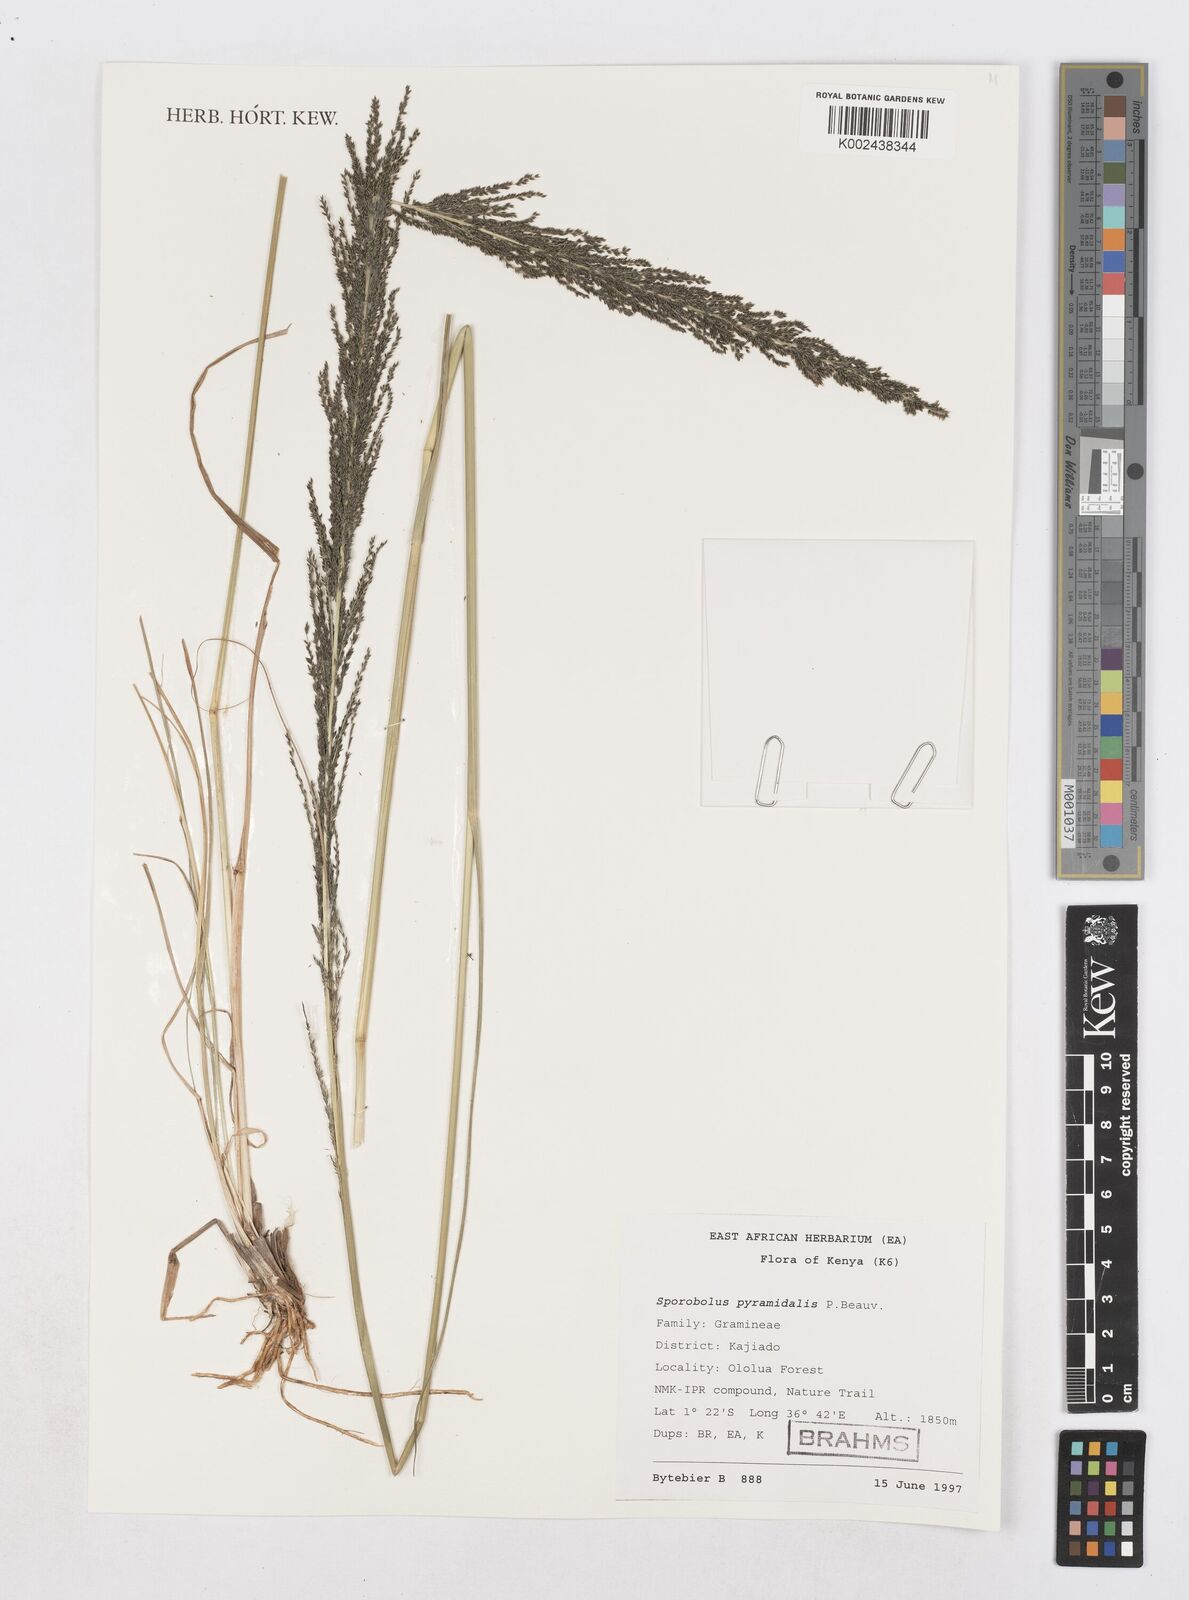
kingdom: Plantae
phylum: Tracheophyta
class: Liliopsida
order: Poales
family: Poaceae
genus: Sporobolus
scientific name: Sporobolus pyramidalis
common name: West indian dropseed
